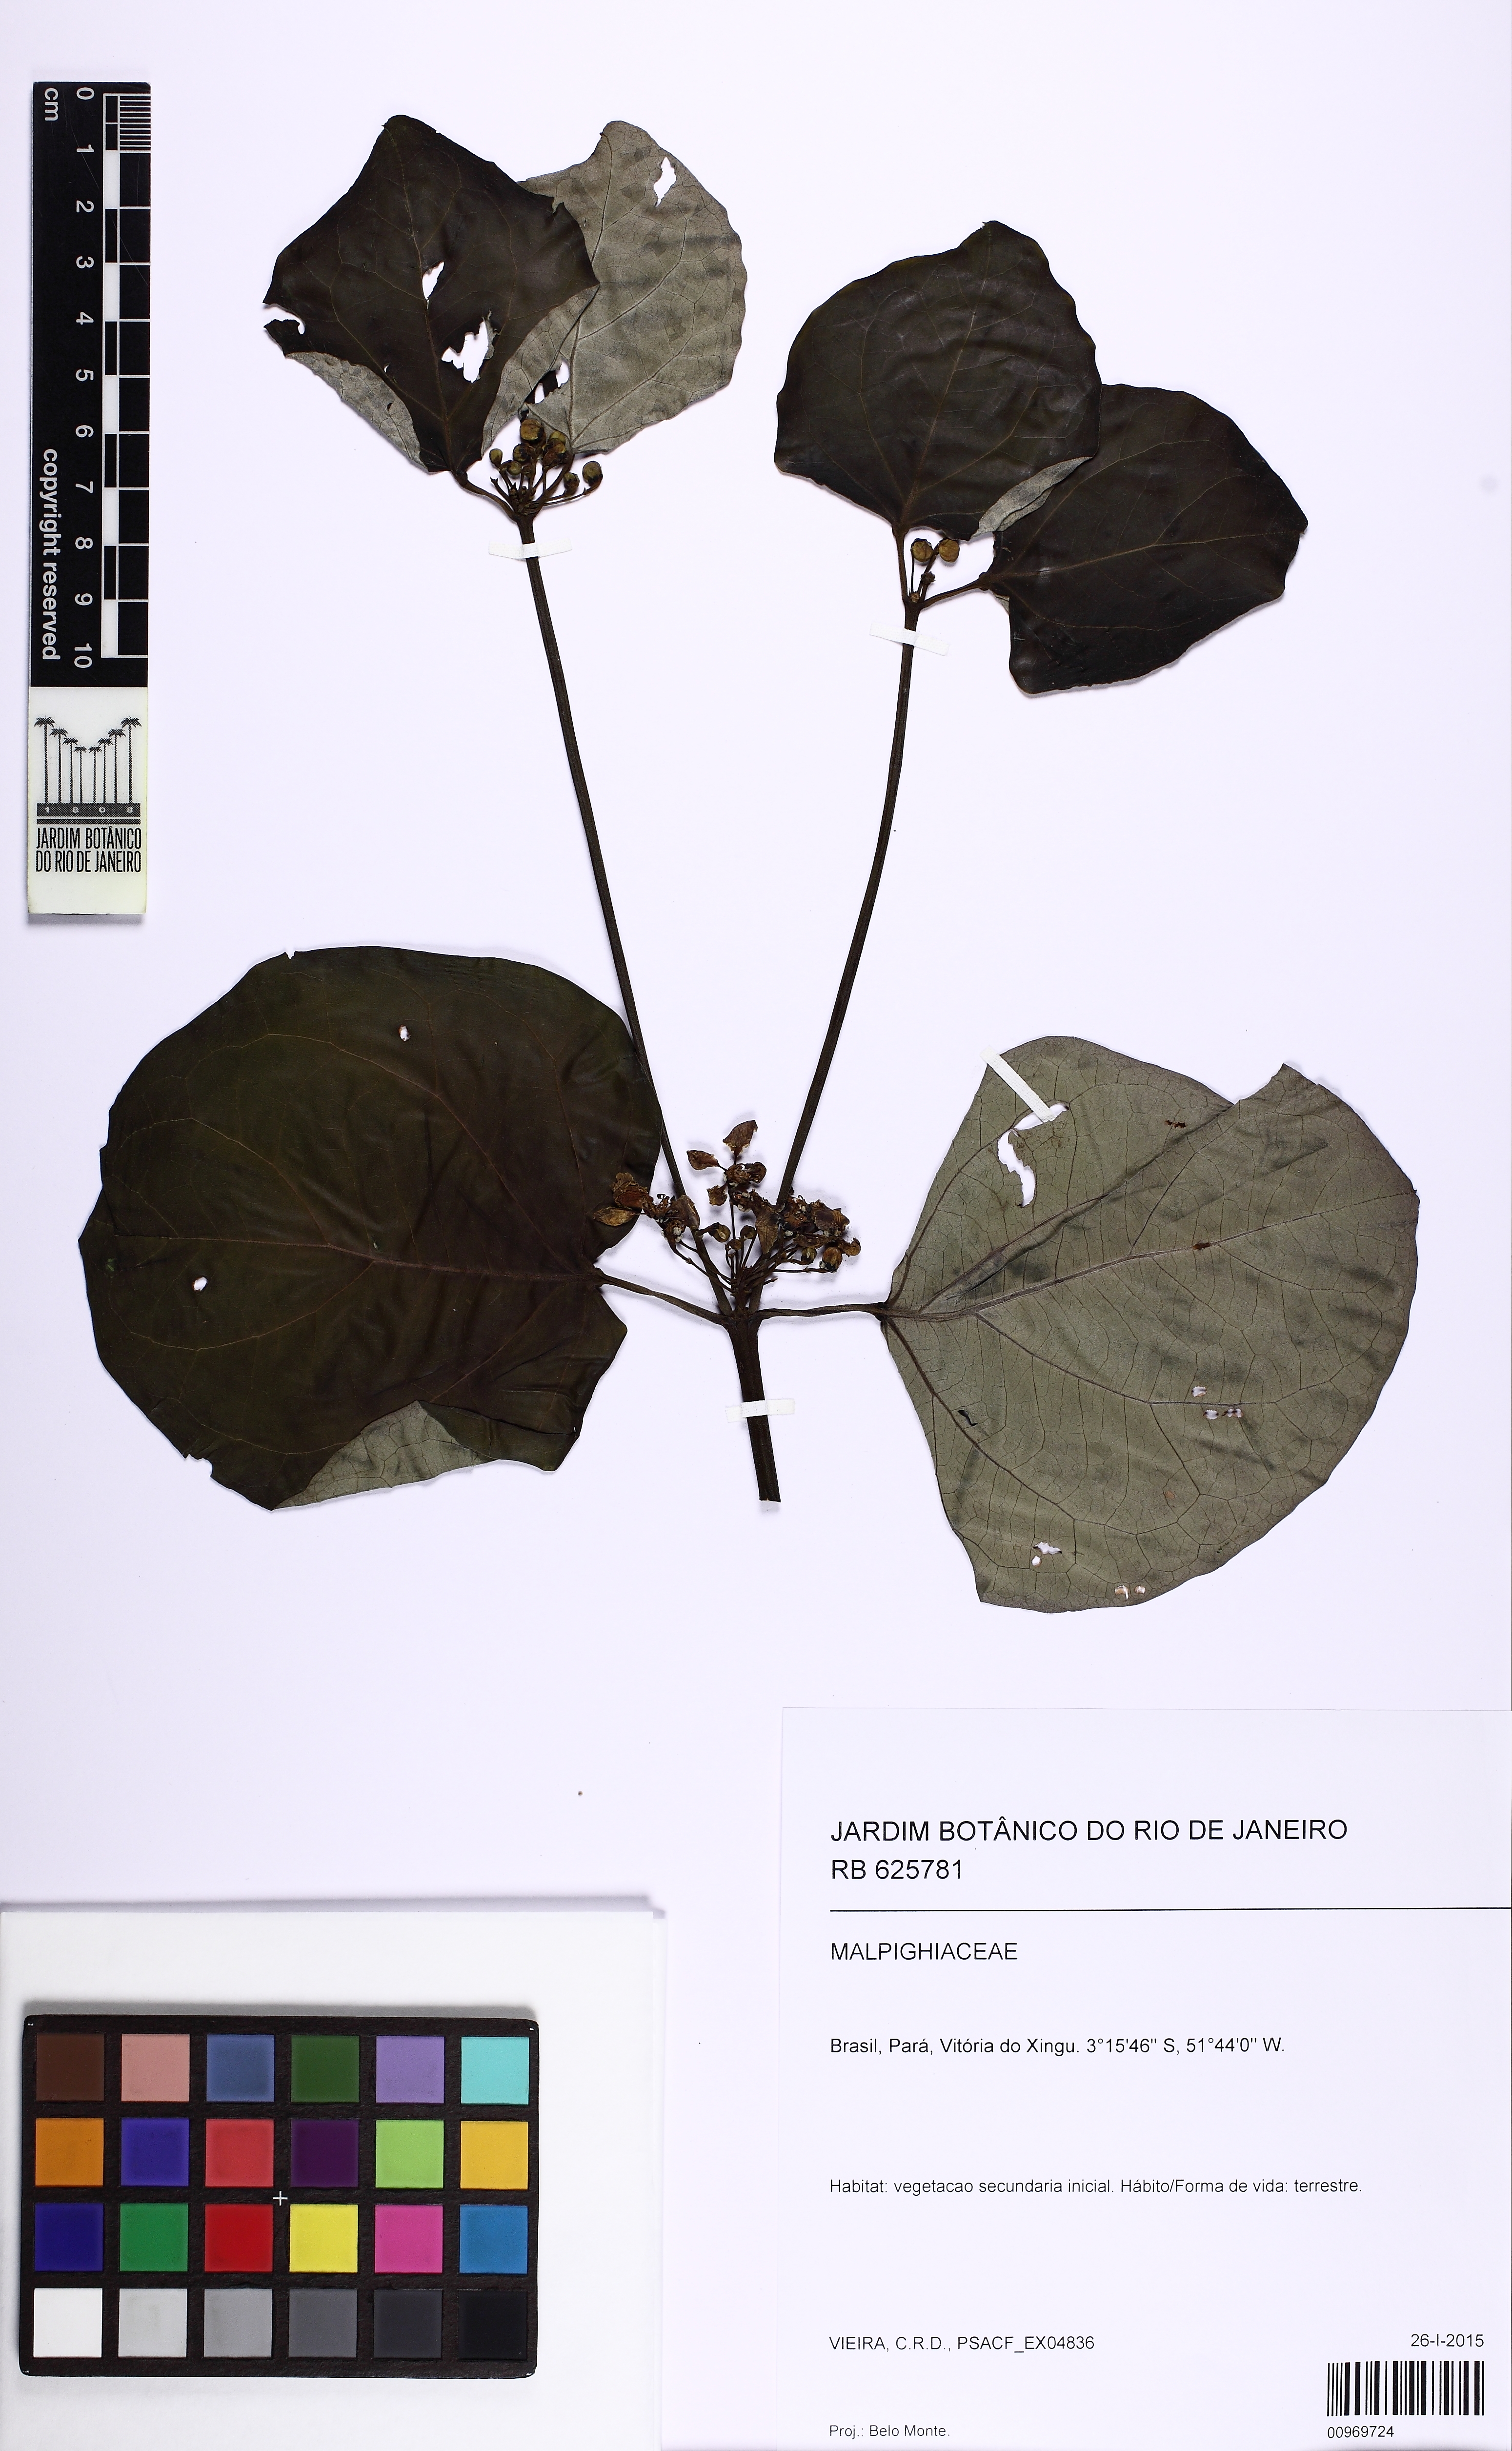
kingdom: Plantae
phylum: Tracheophyta
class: Magnoliopsida
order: Malpighiales
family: Malpighiaceae
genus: Stigmaphyllon
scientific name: Stigmaphyllon sinuatum
